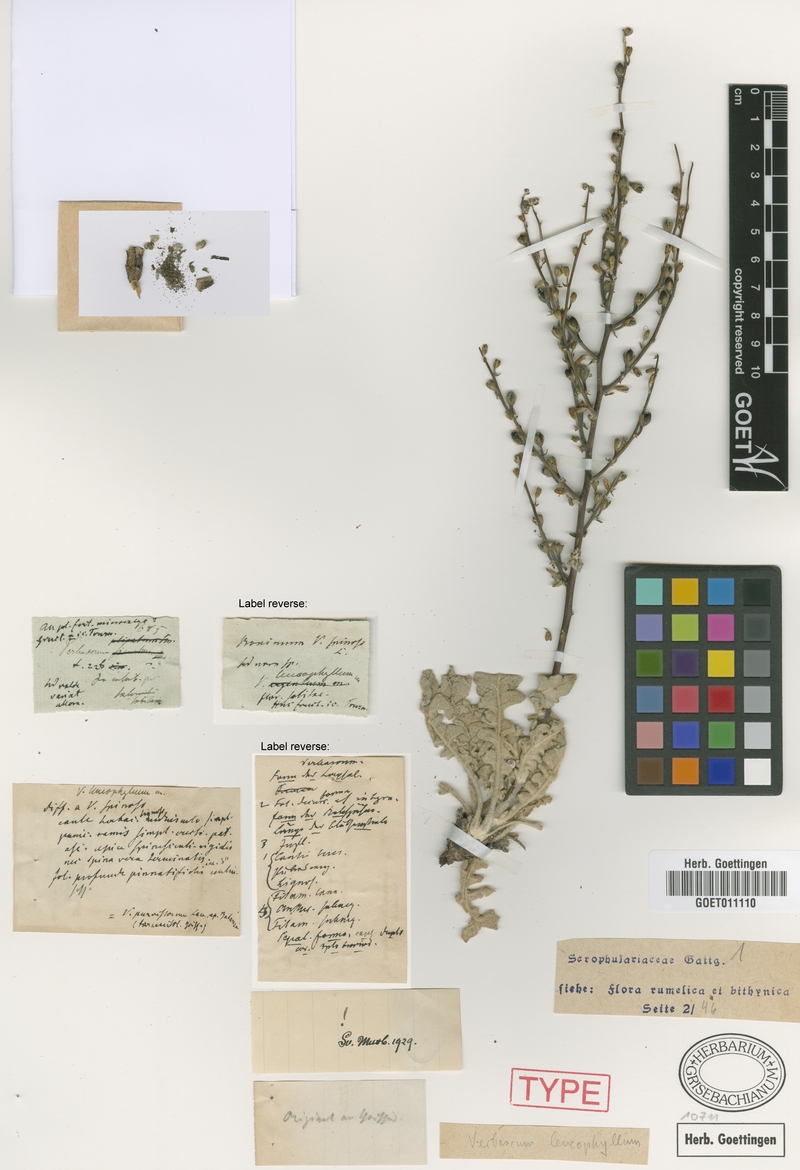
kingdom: Plantae
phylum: Tracheophyta
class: Magnoliopsida
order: Lamiales
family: Scrophulariaceae
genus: Verbascum
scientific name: Verbascum leucophyllum
